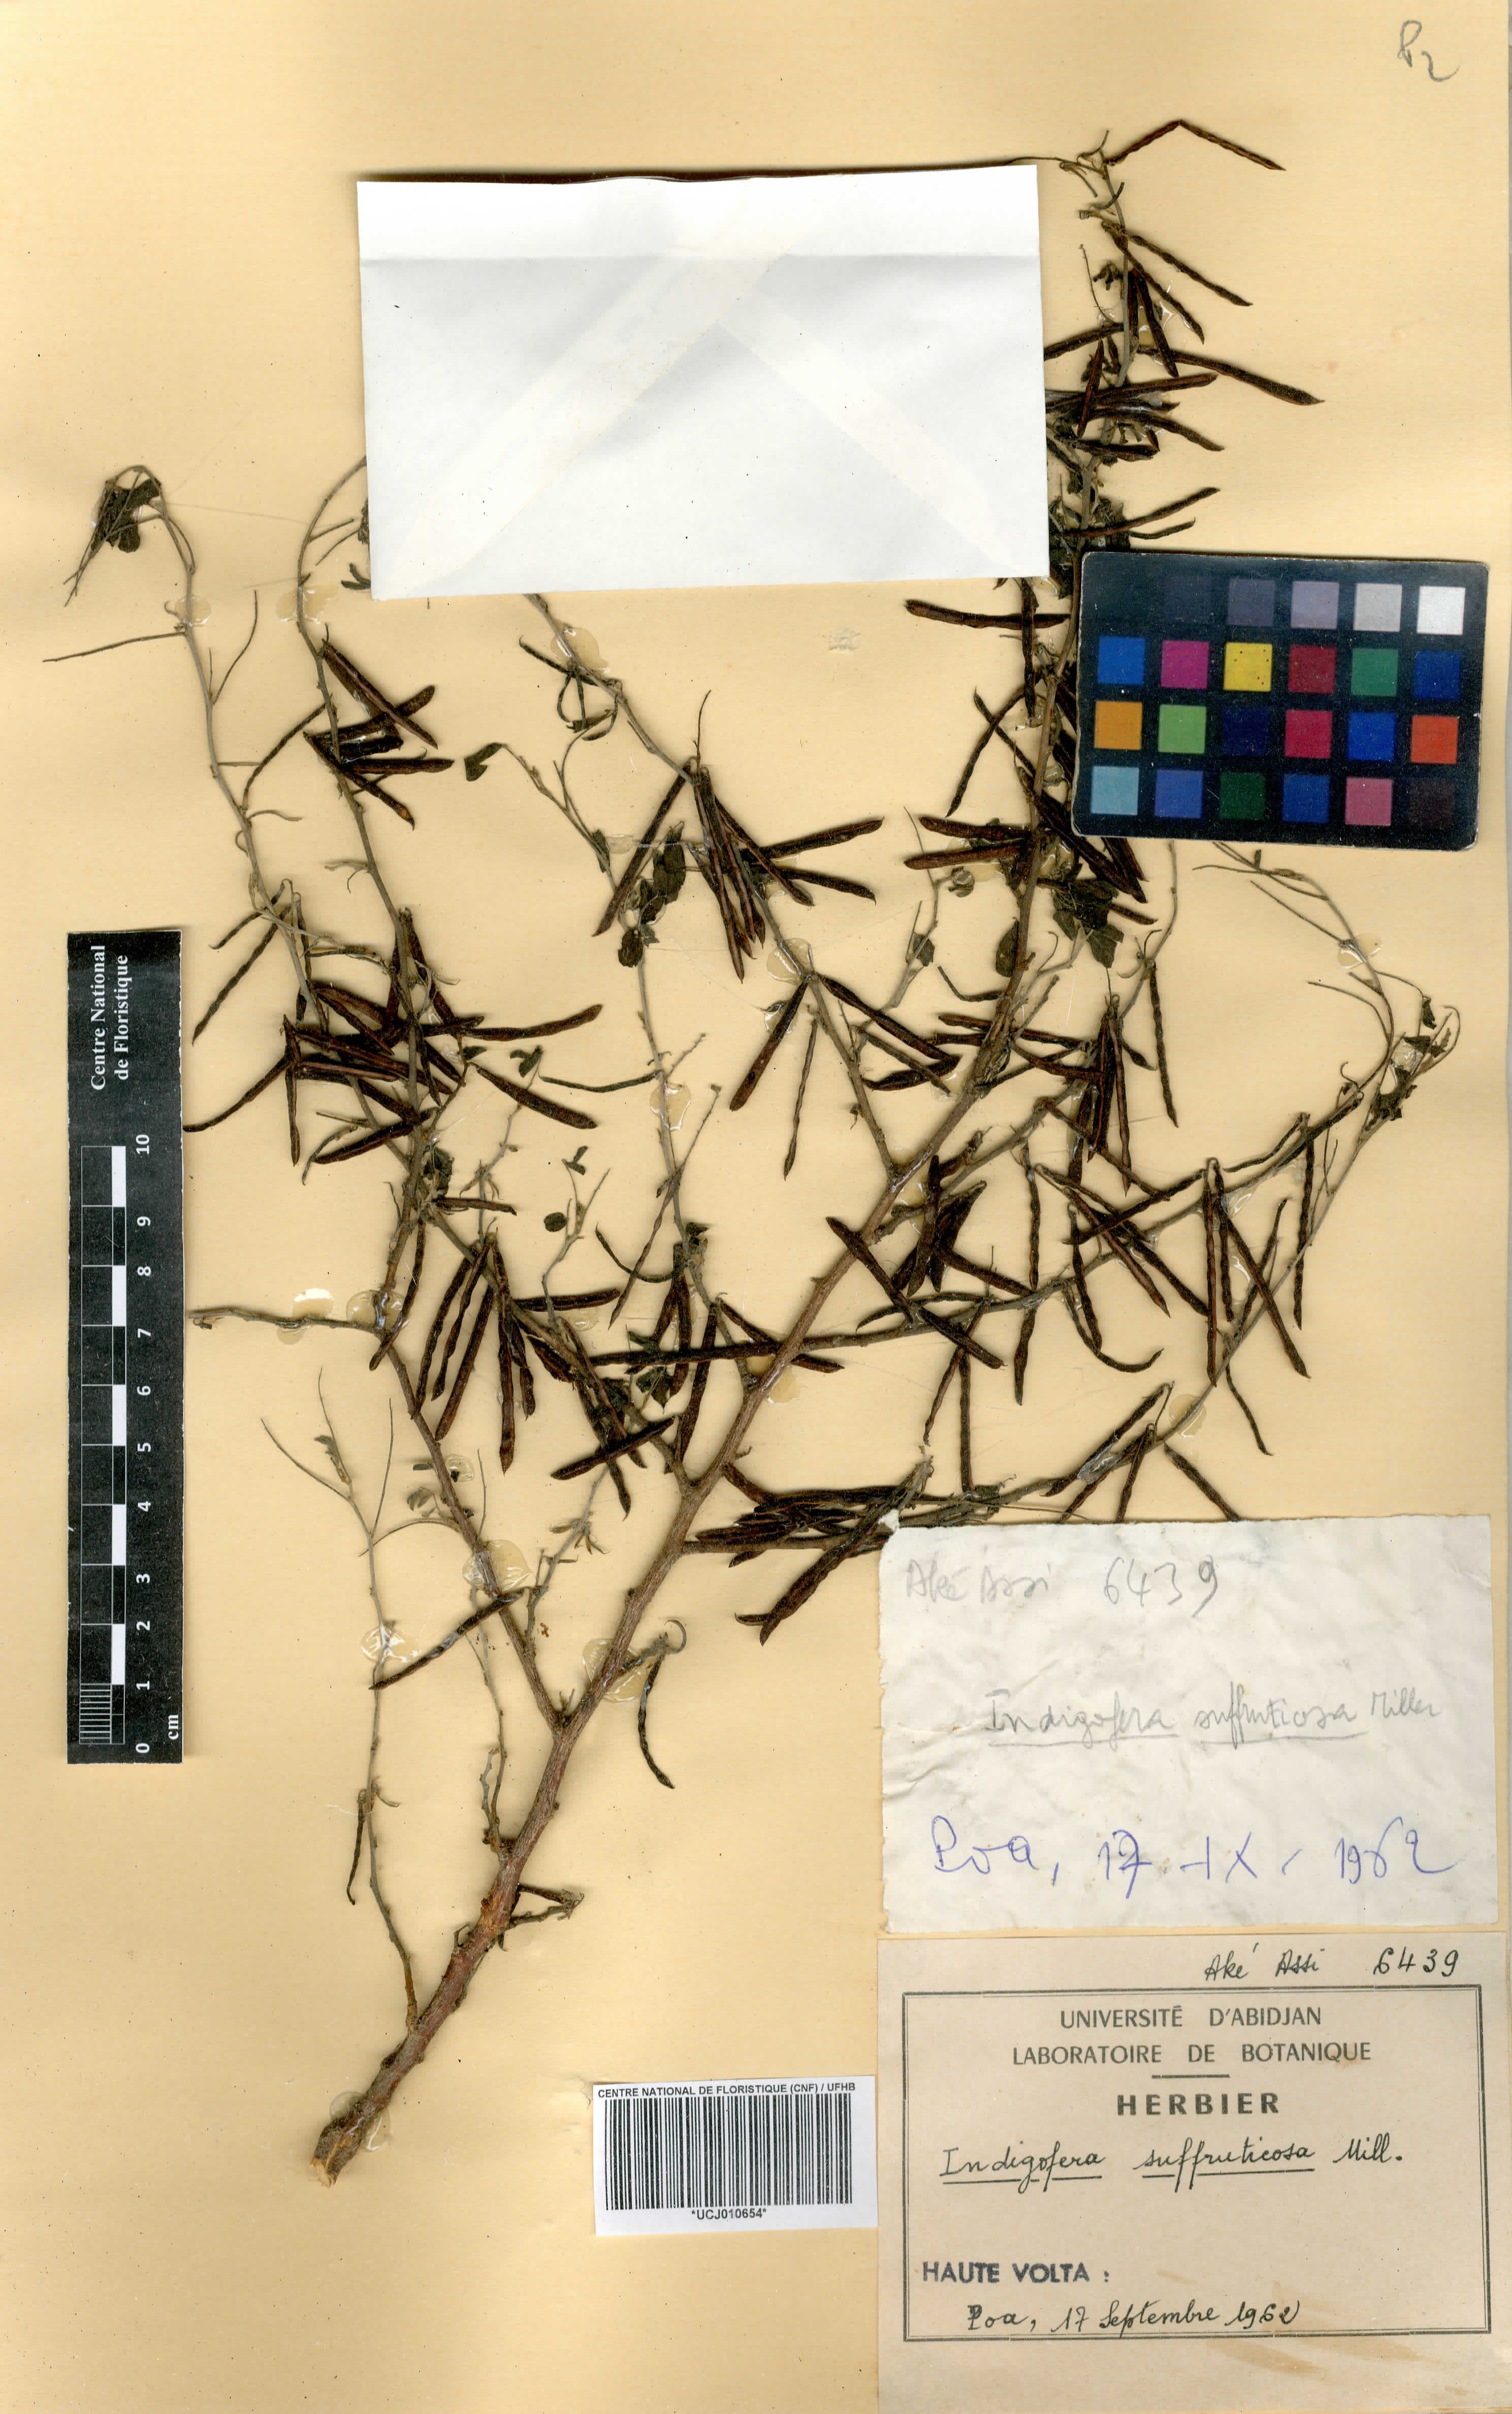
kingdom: Plantae
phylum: Tracheophyta
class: Magnoliopsida
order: Fabales
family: Fabaceae
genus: Indigofera
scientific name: Indigofera suffruticosa
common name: Anil de pasto
